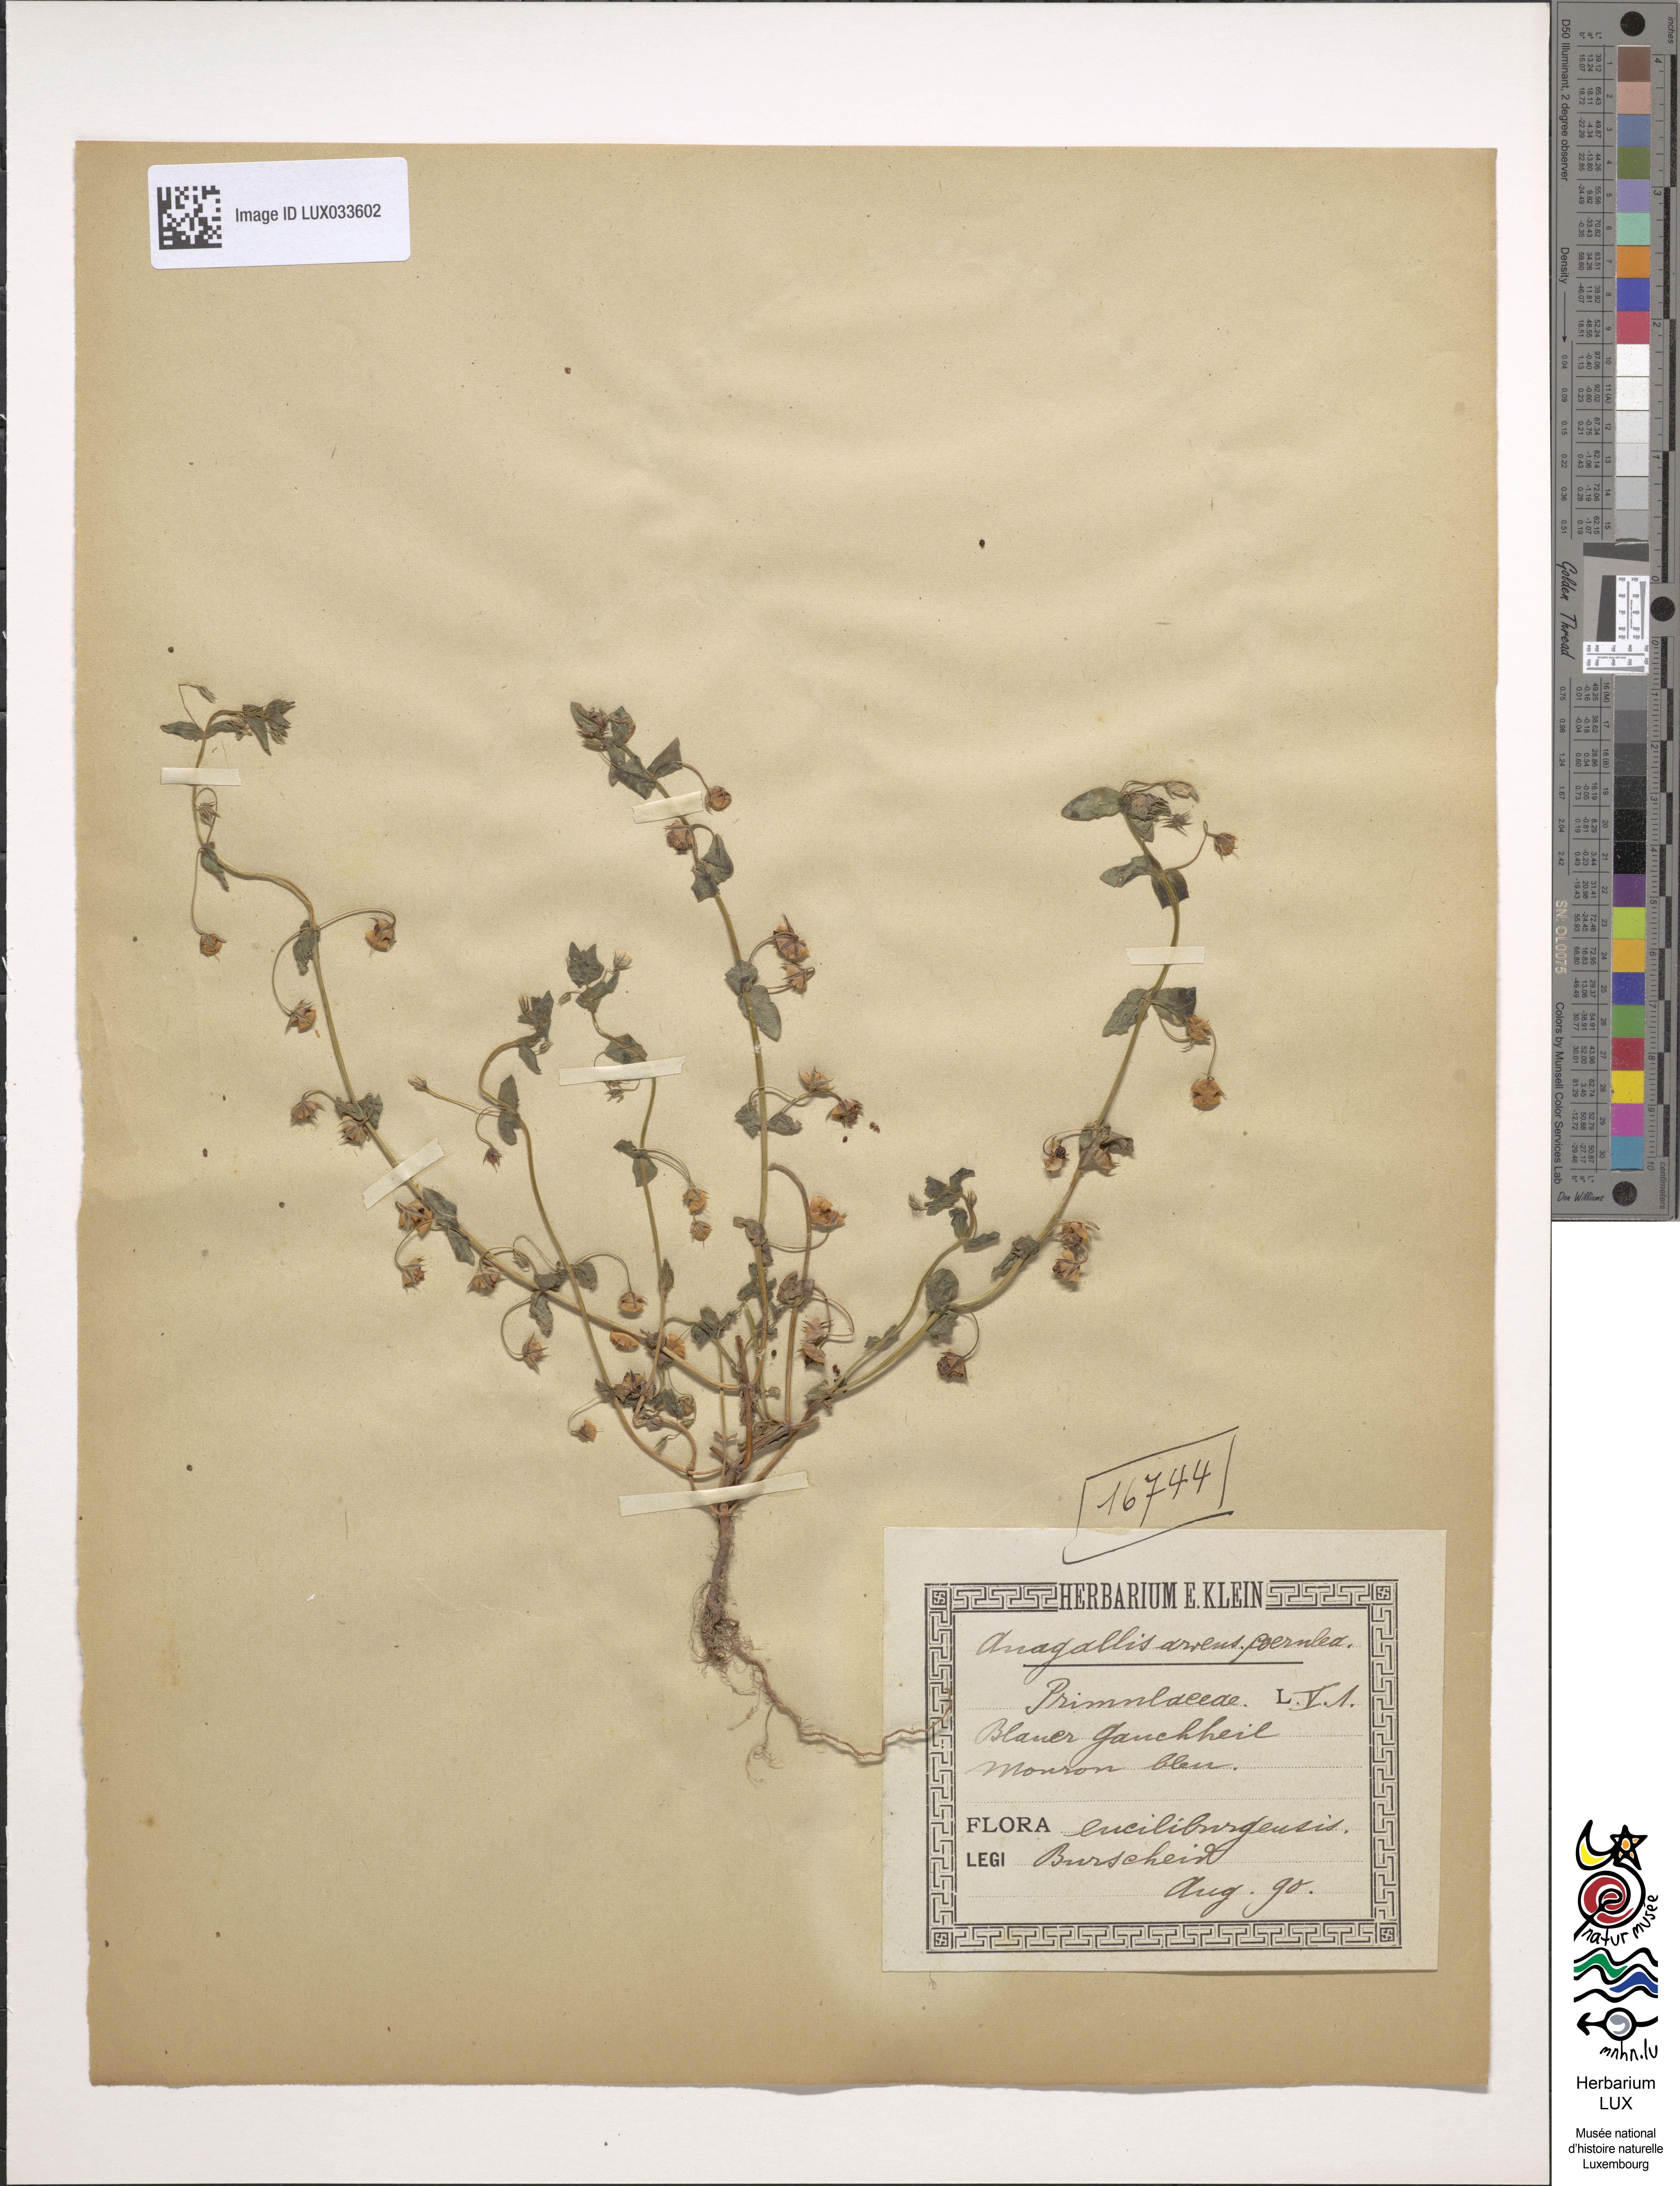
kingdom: Plantae
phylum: Tracheophyta
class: Magnoliopsida
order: Ericales
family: Primulaceae
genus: Lysimachia
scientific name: Lysimachia arvensis
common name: Scarlet pimpernel
